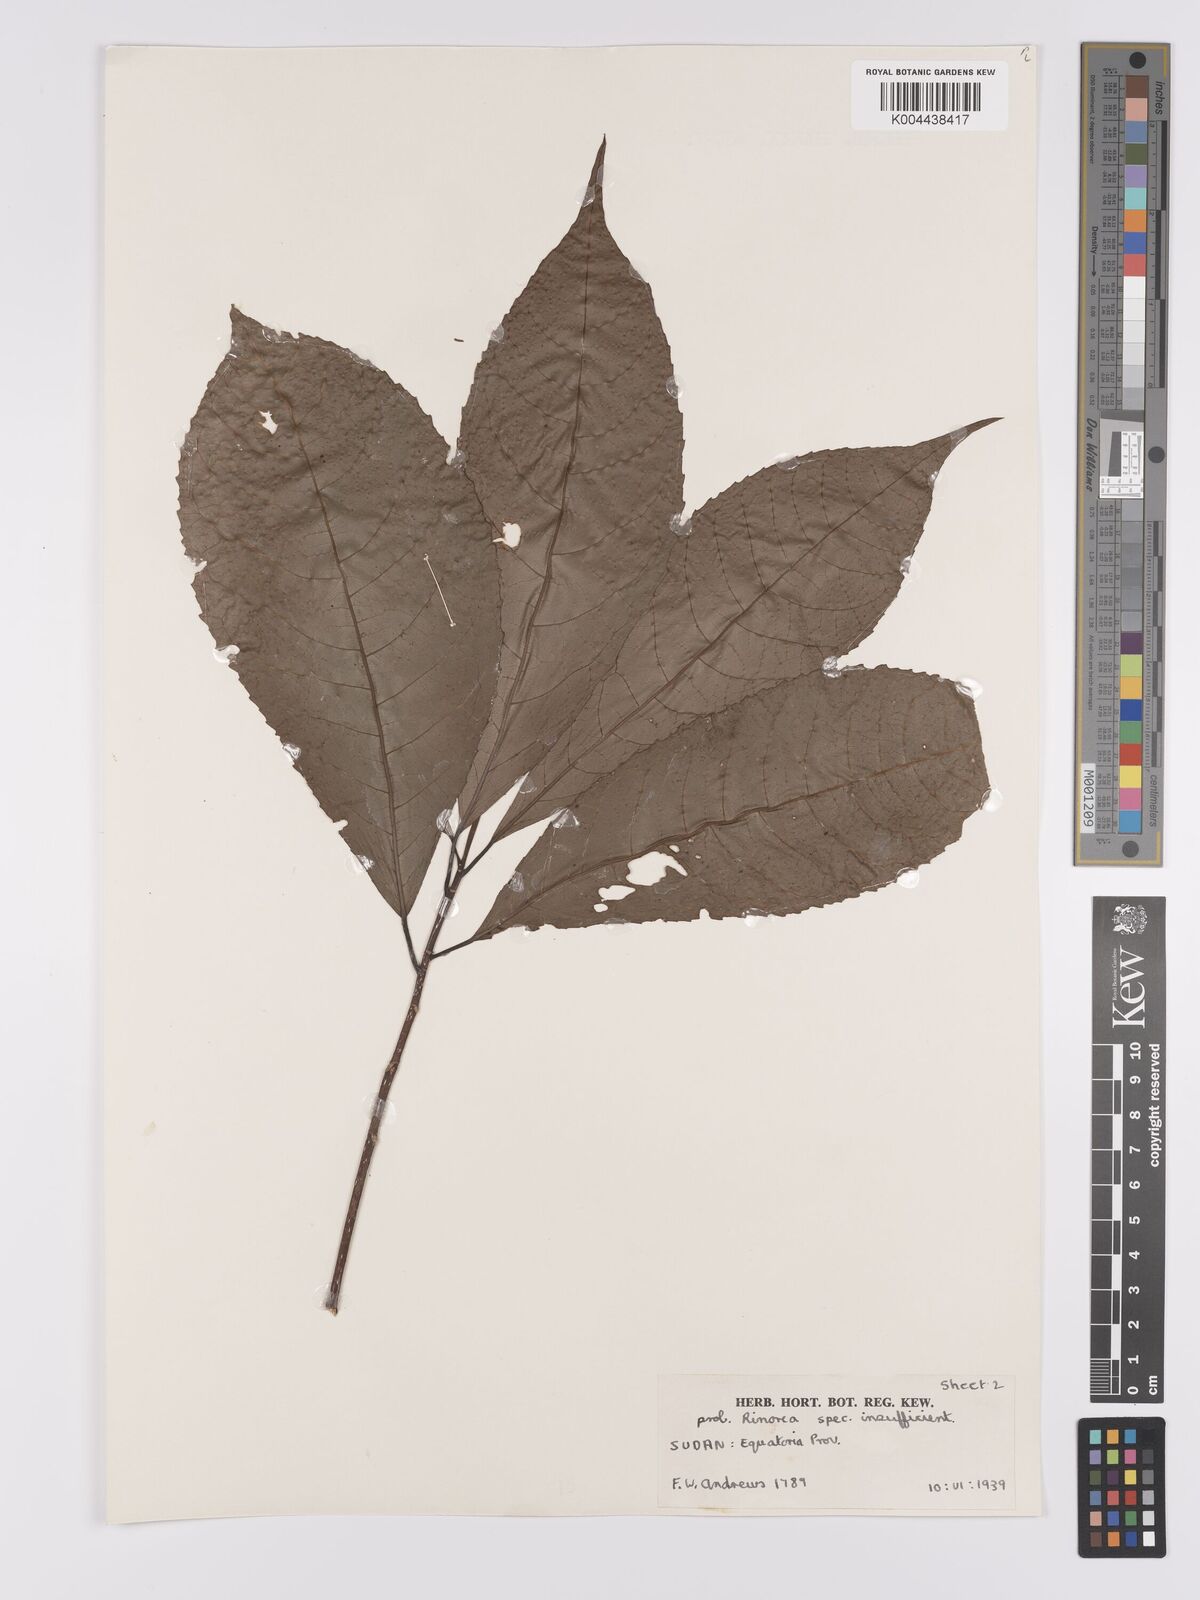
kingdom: Plantae
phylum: Tracheophyta
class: Magnoliopsida
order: Apiales
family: Pittosporaceae
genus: Marianthus
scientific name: Marianthus coeruleopunctatus
